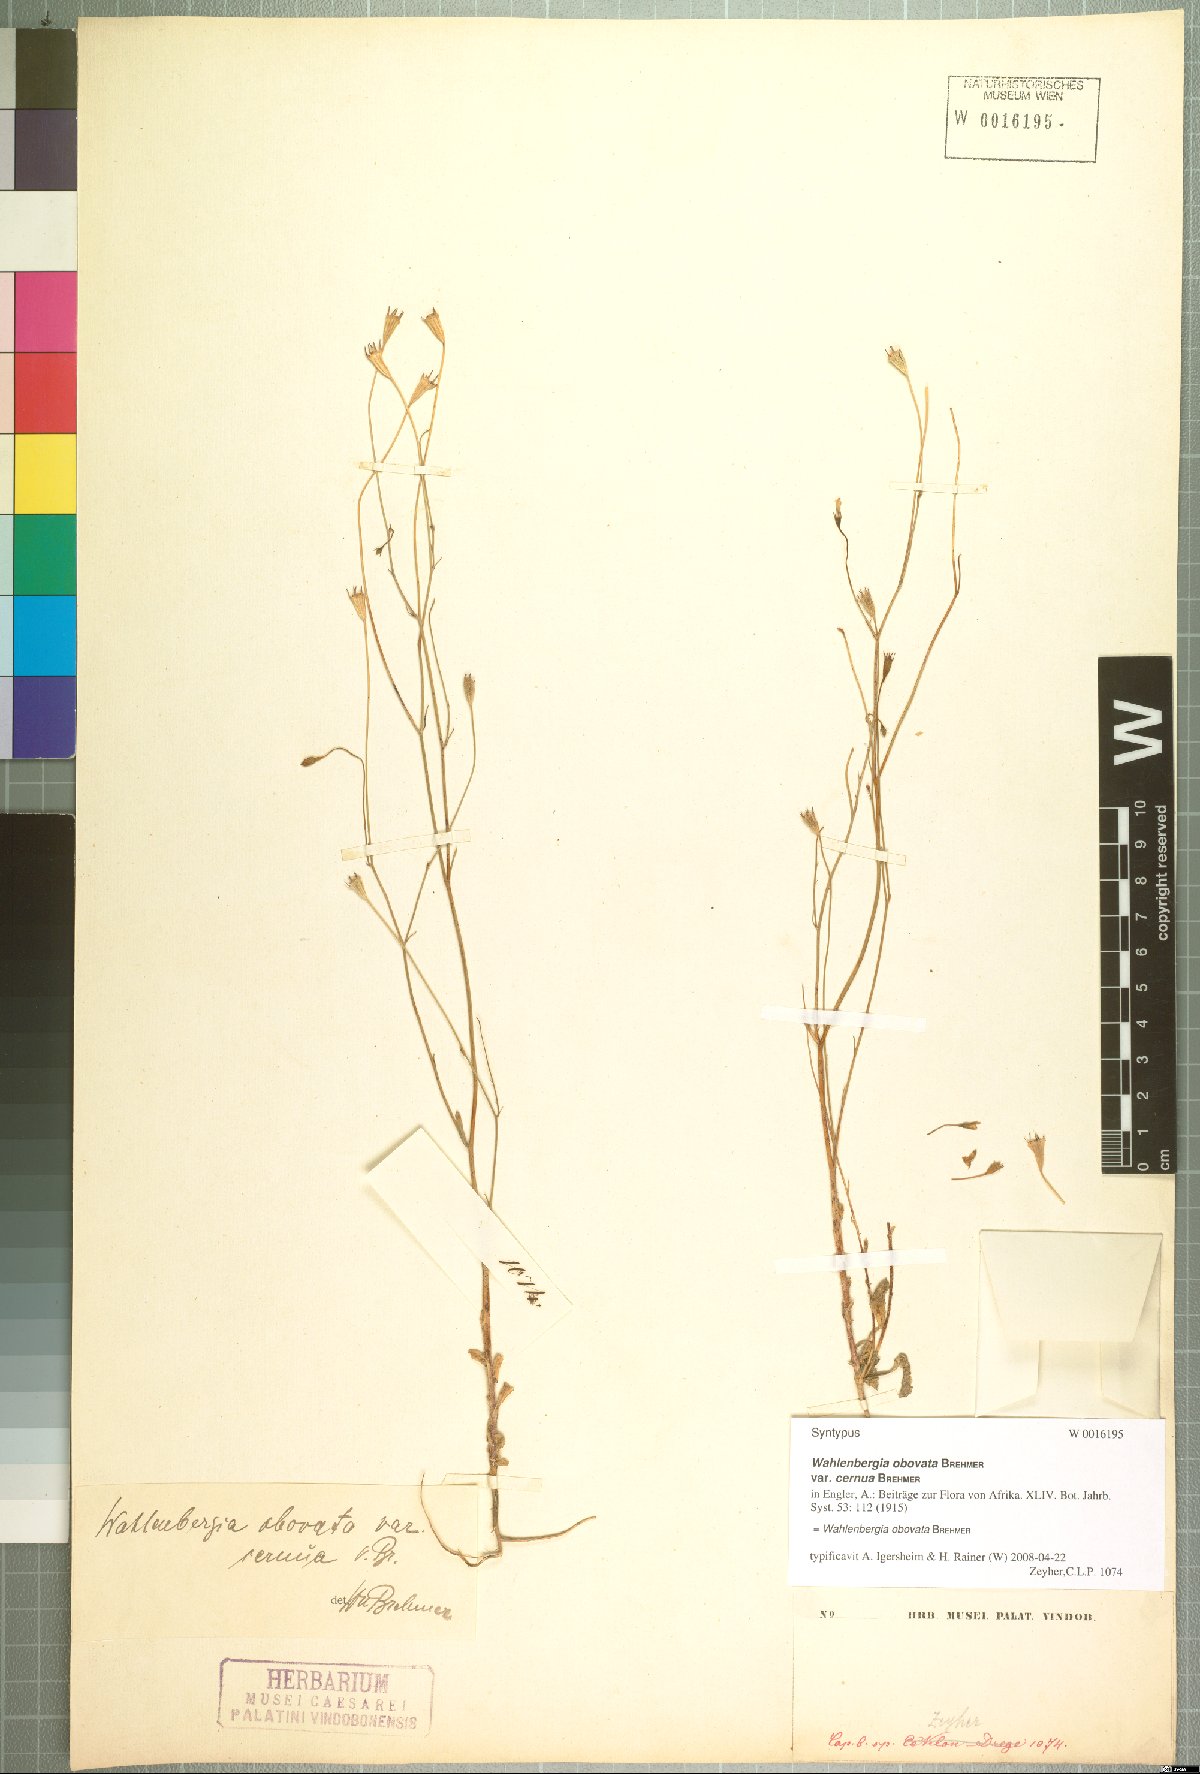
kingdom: Plantae
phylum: Tracheophyta
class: Magnoliopsida
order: Asterales
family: Campanulaceae
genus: Wahlenbergia
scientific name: Wahlenbergia obovata
